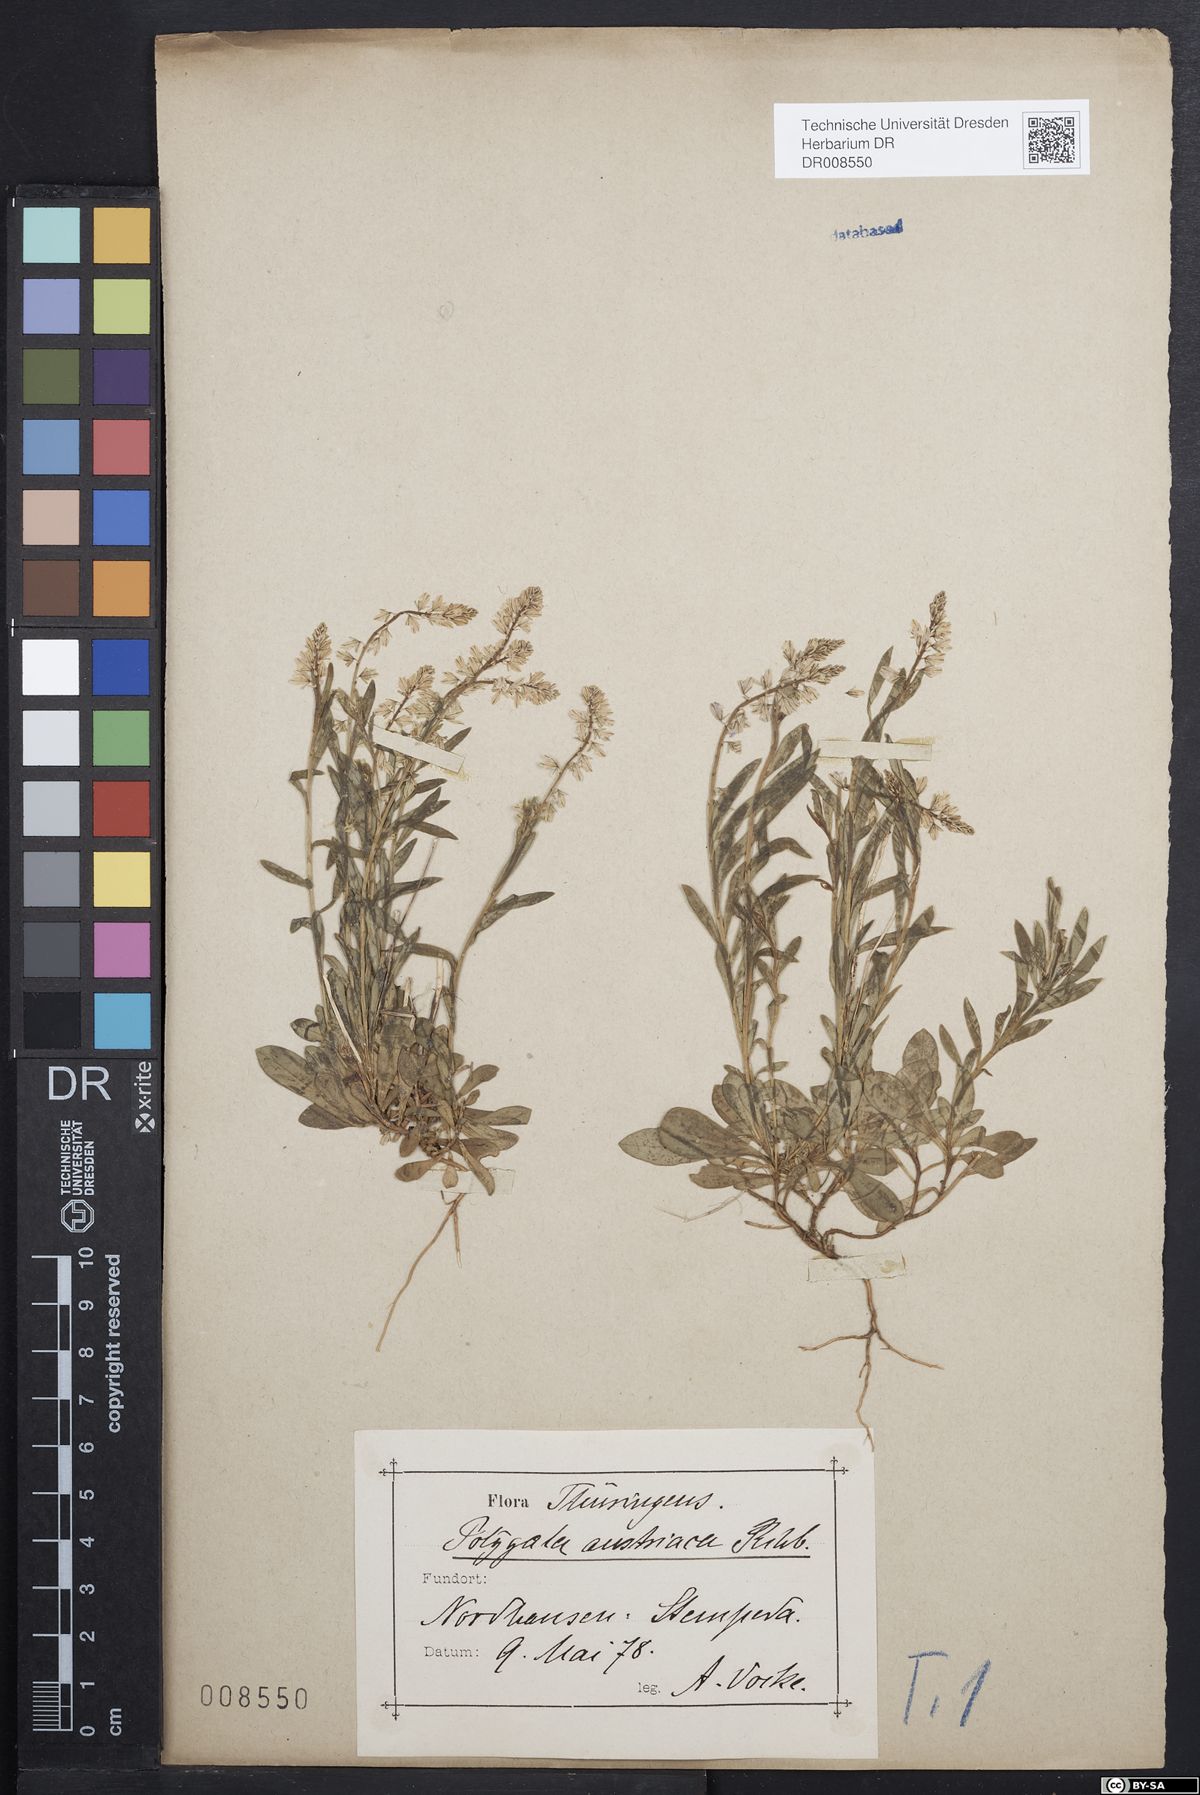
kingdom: Plantae
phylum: Tracheophyta
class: Magnoliopsida
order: Fabales
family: Polygalaceae
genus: Polygala
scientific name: Polygala amarella
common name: Dwarf milkwort
